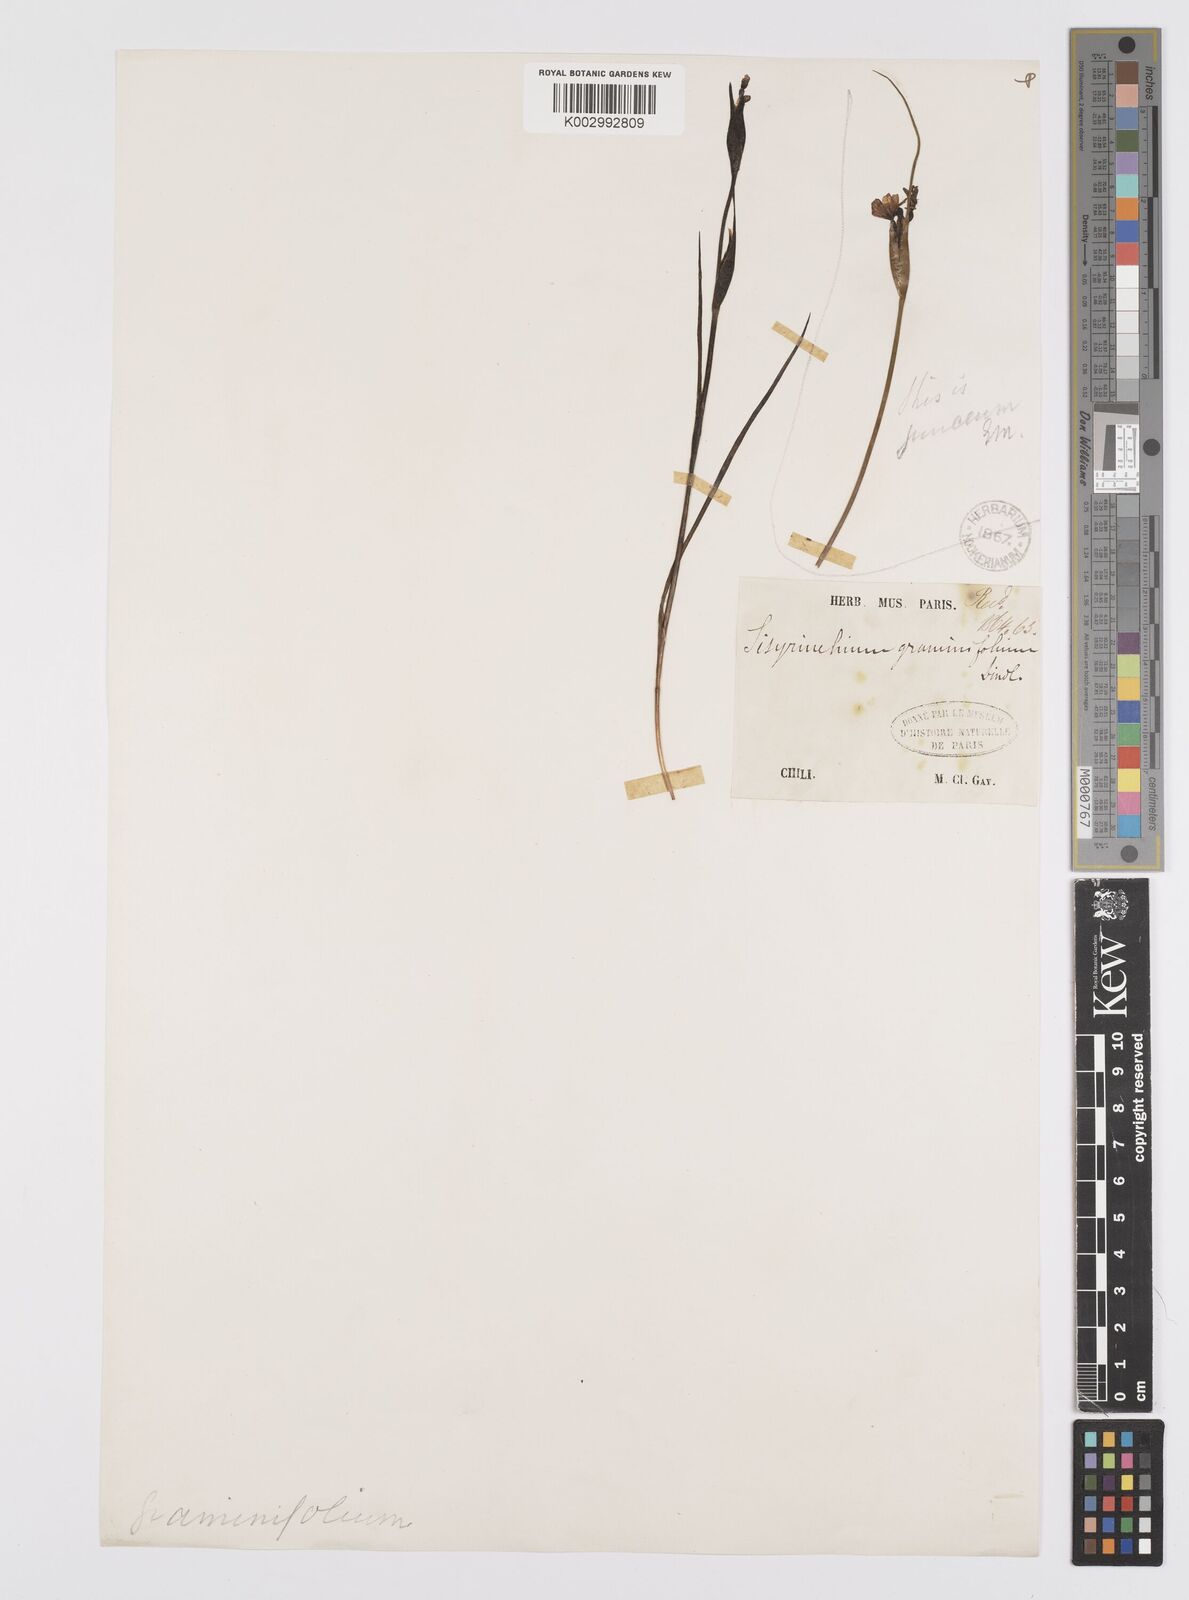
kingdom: Plantae
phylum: Tracheophyta
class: Liliopsida
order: Asparagales
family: Iridaceae
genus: Sisyrinchium
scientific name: Sisyrinchium graminifolium
